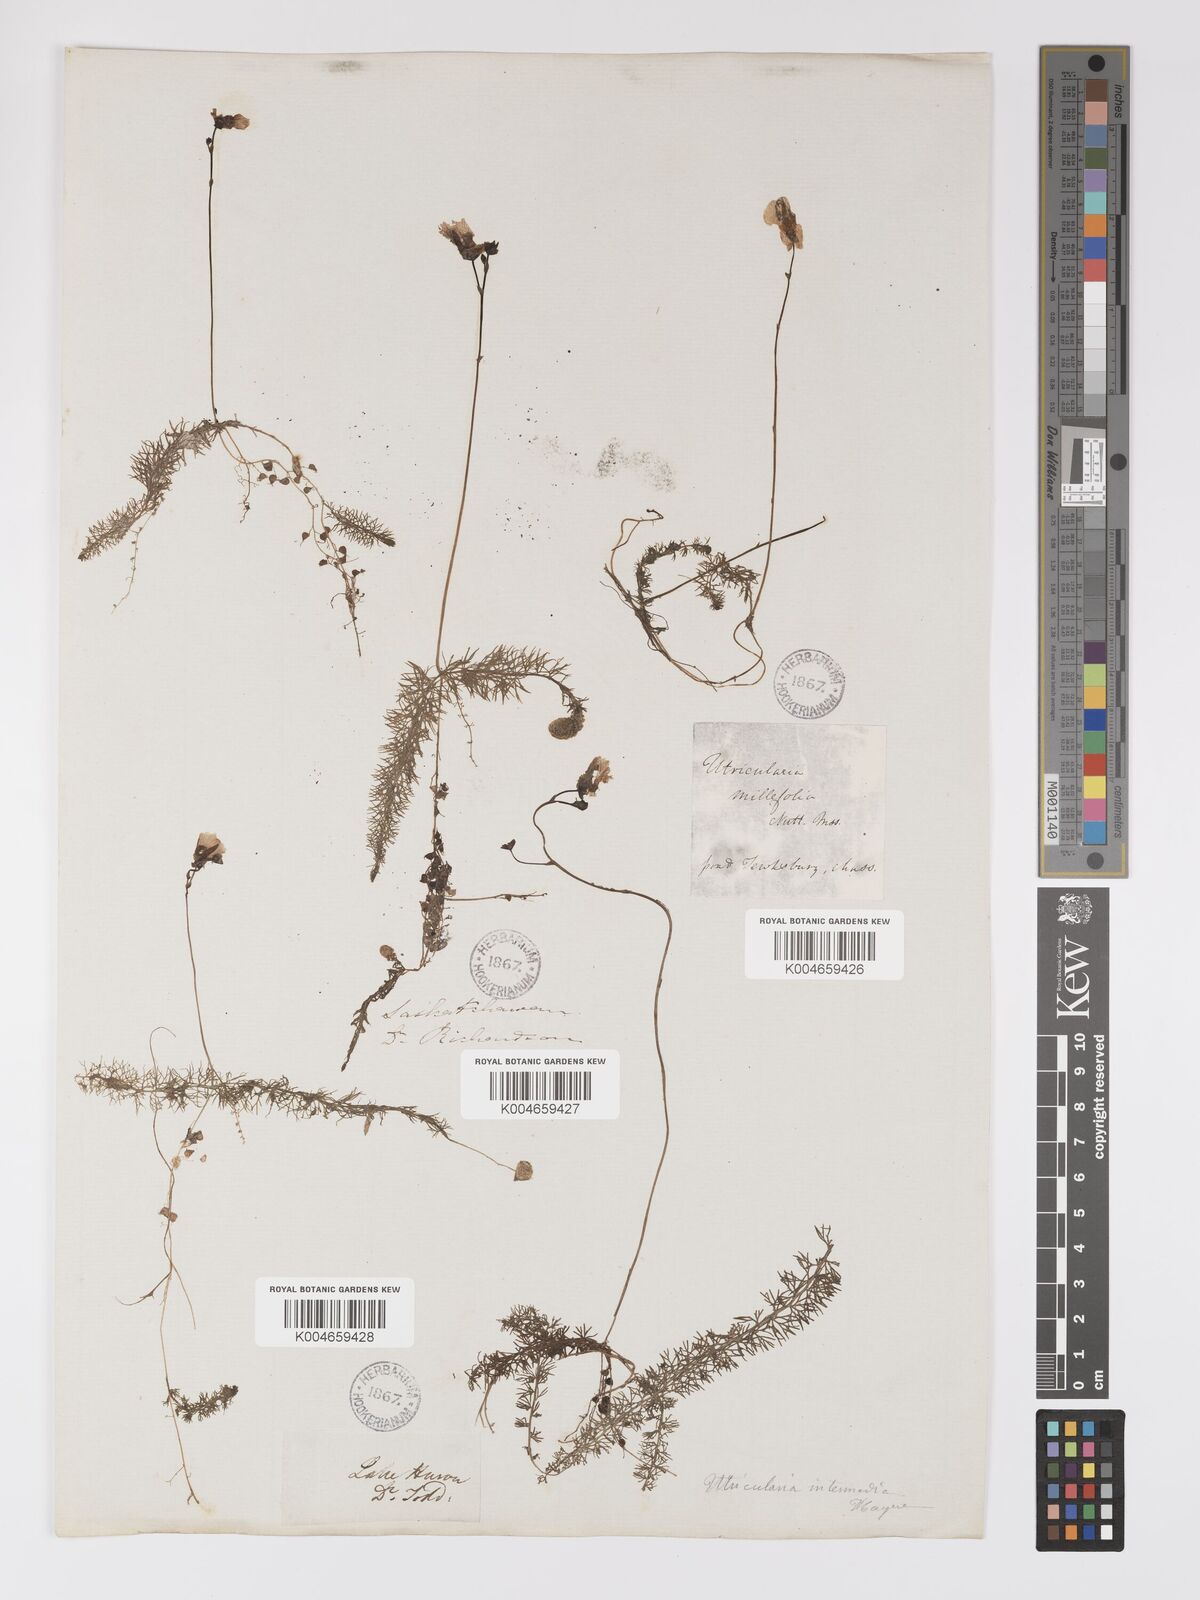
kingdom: Plantae
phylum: Tracheophyta
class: Magnoliopsida
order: Lamiales
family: Lentibulariaceae
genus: Utricularia
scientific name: Utricularia intermedia
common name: Intermediate bladderwort
